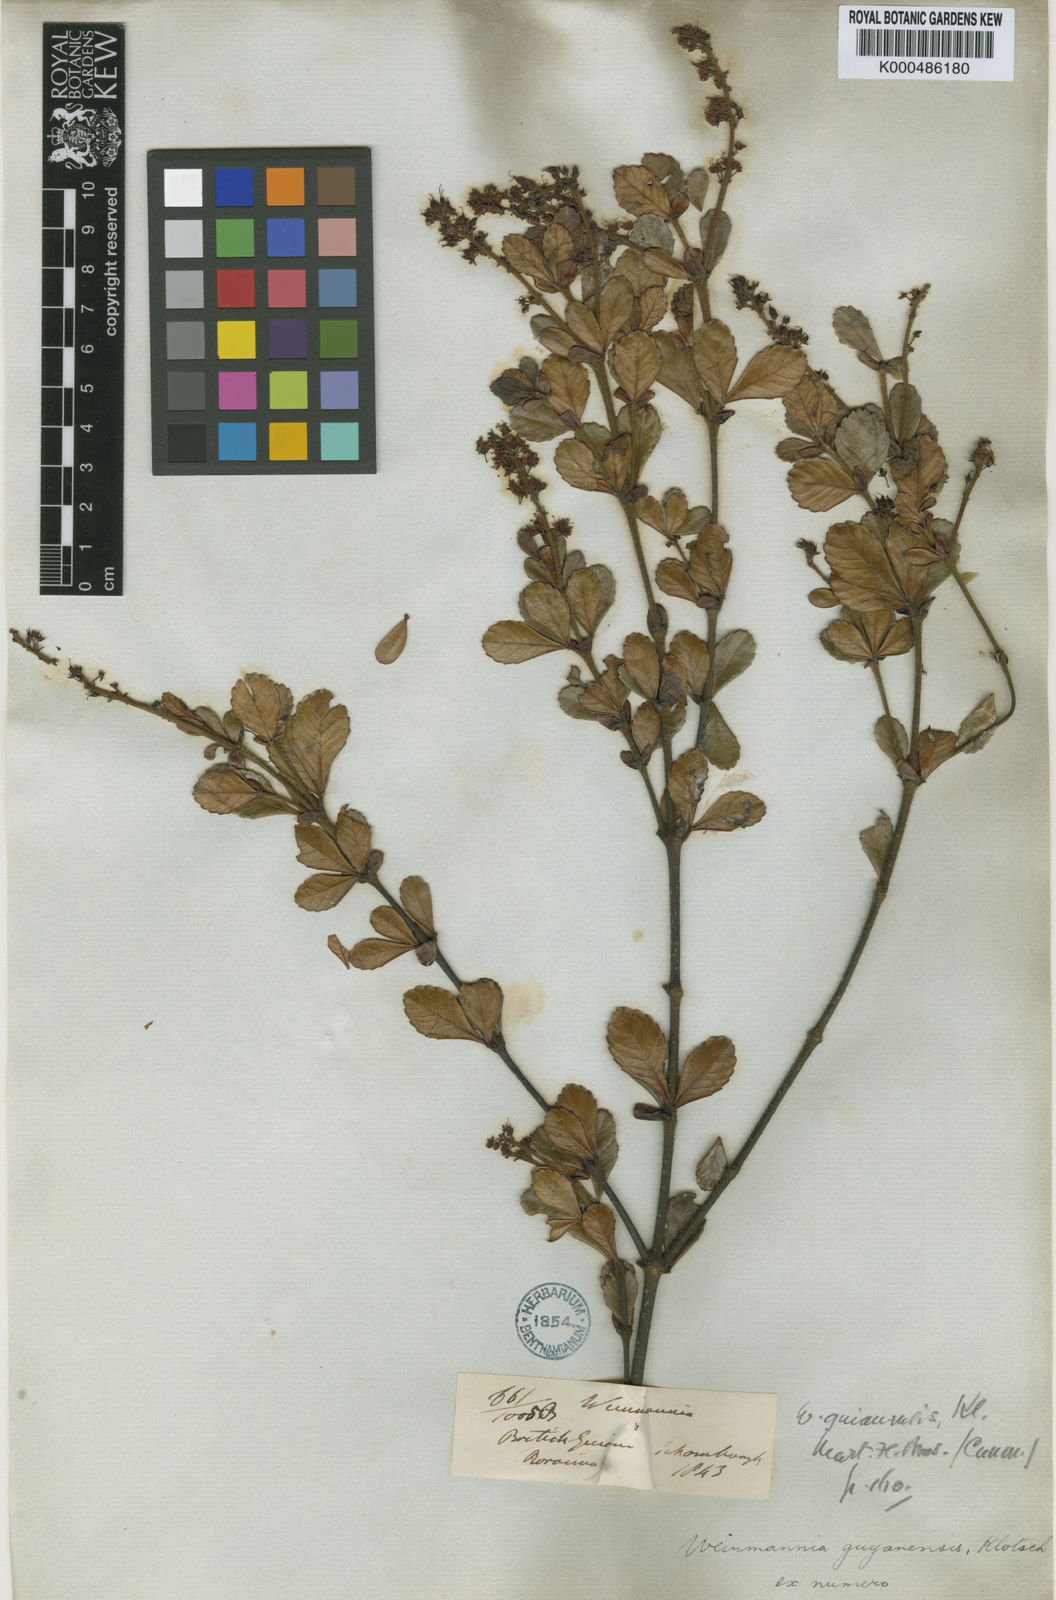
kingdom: Plantae
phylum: Tracheophyta
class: Magnoliopsida
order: Oxalidales
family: Cunoniaceae
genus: Weinmannia
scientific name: Weinmannia guyanensis
